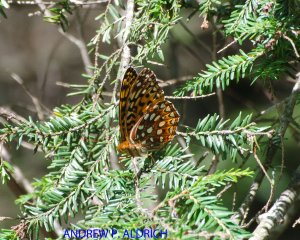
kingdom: Animalia
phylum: Arthropoda
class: Insecta
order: Lepidoptera
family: Nymphalidae
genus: Speyeria
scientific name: Speyeria aphrodite
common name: Aphrodite Fritillary
